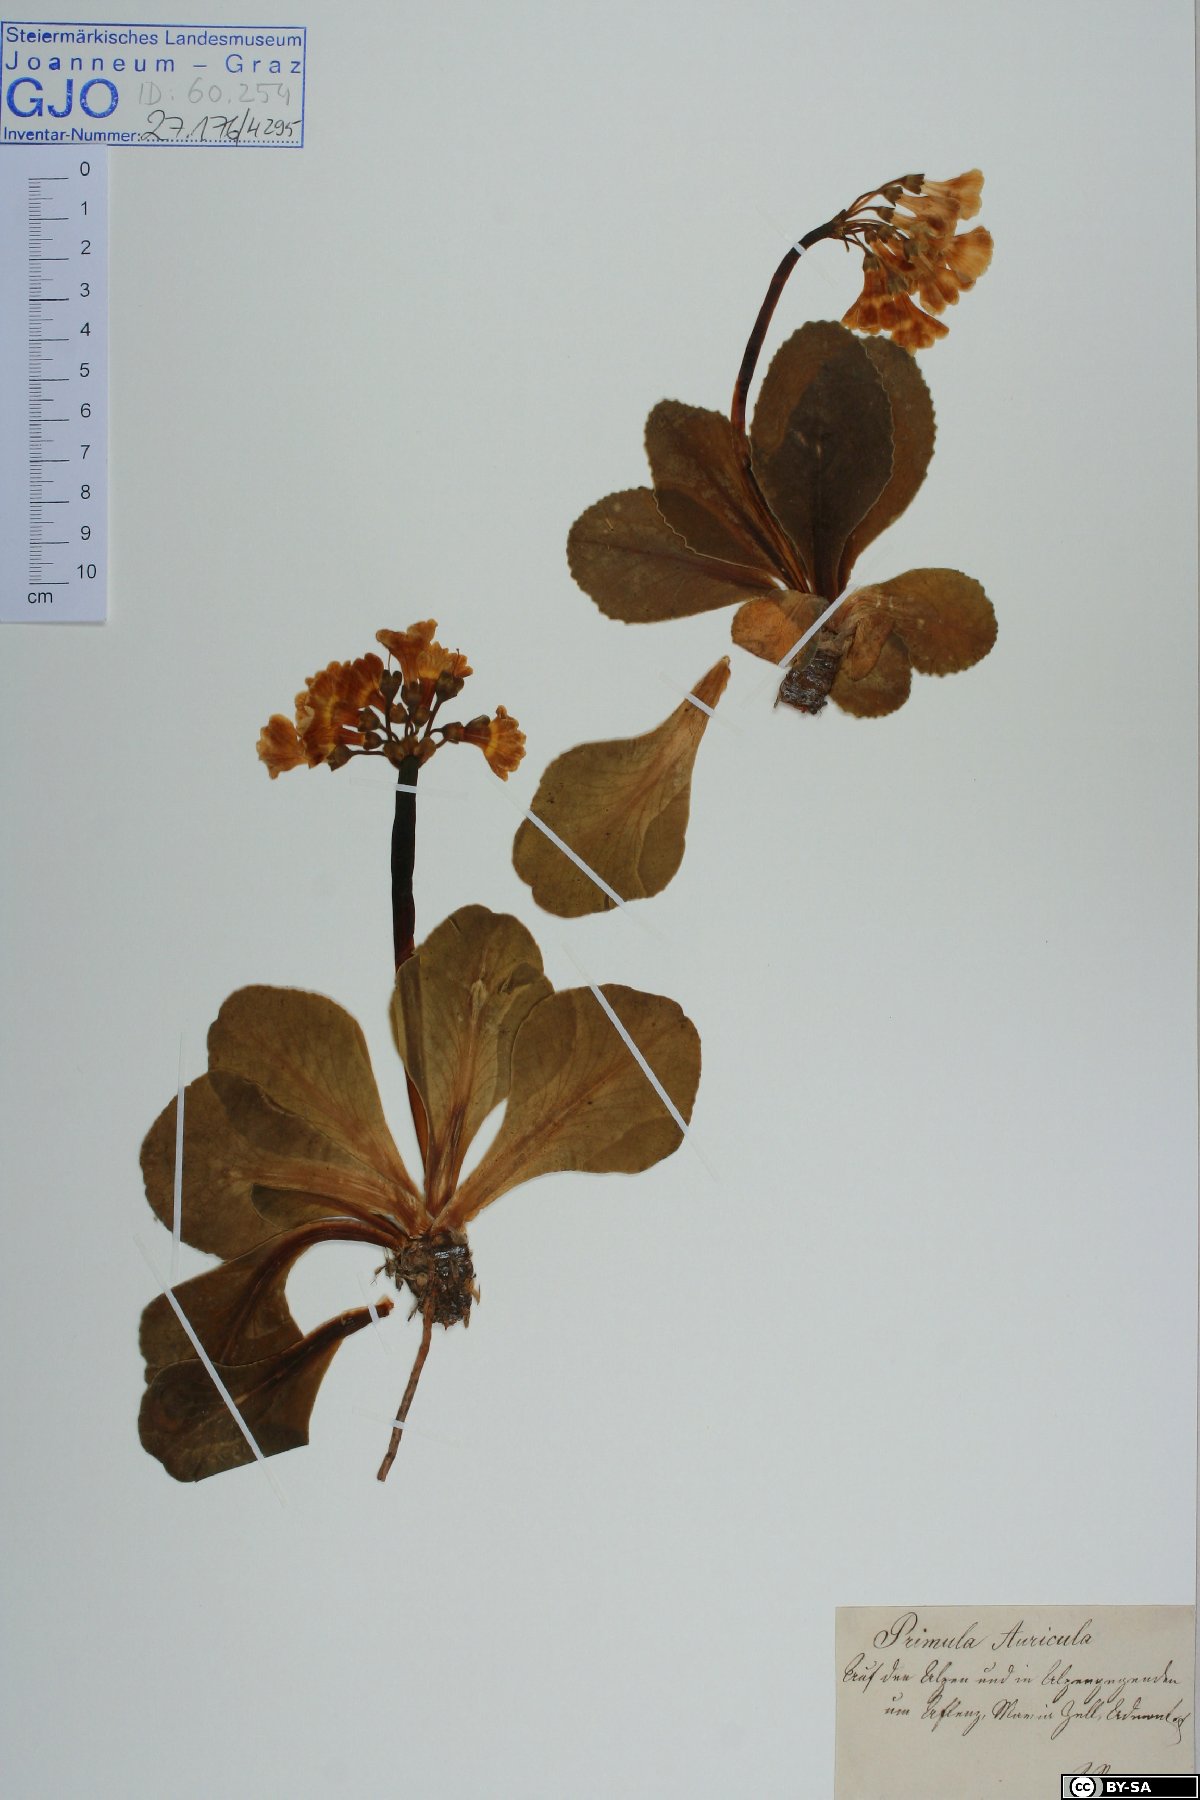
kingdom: Plantae
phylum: Tracheophyta
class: Magnoliopsida
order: Ericales
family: Primulaceae
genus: Primula
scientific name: Primula auricula
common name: Auricula
